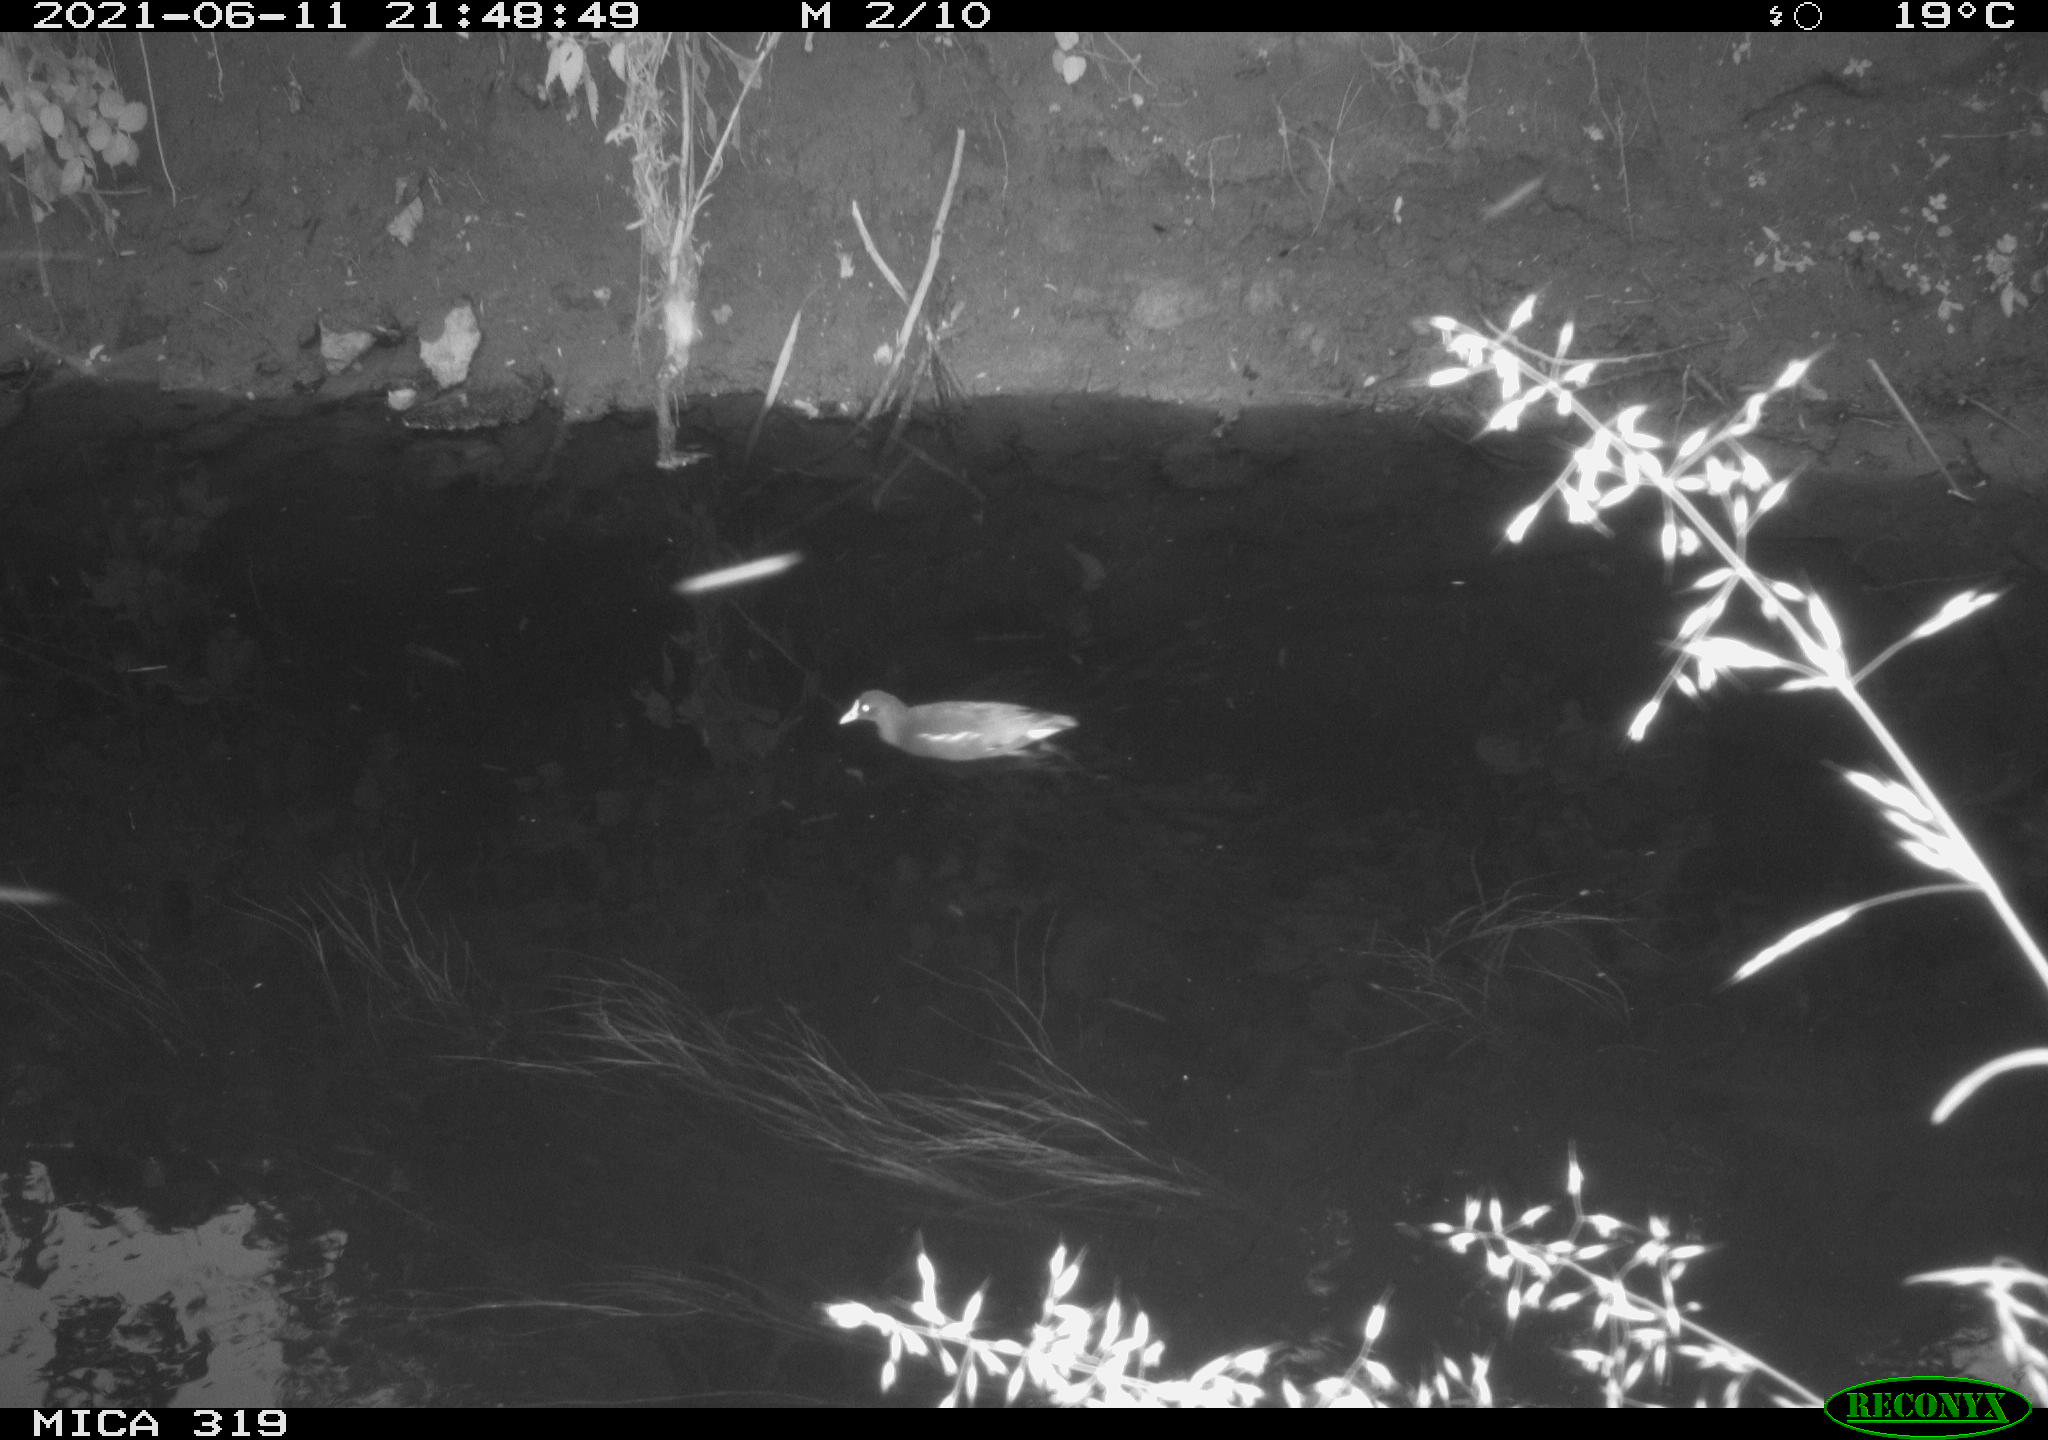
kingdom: Animalia
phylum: Chordata
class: Aves
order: Gruiformes
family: Rallidae
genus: Gallinula
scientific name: Gallinula chloropus
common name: Common moorhen
